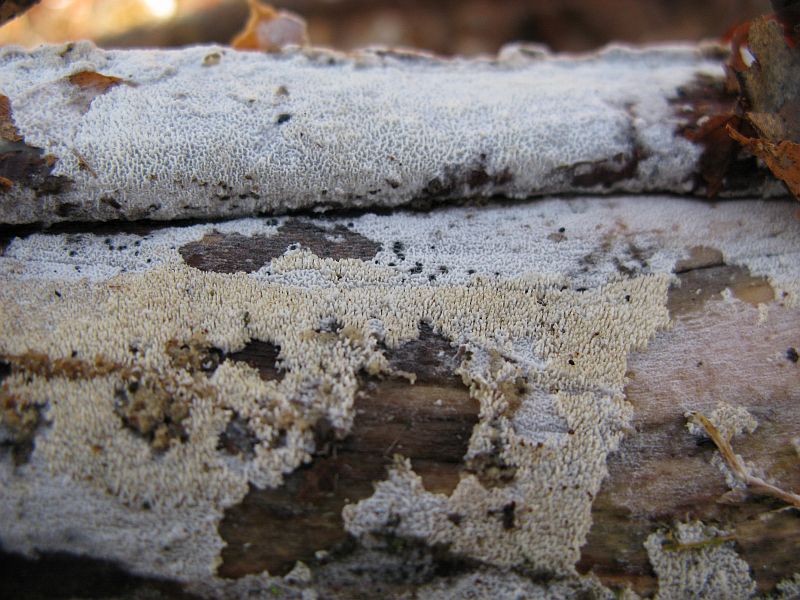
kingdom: Fungi
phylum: Basidiomycota
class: Agaricomycetes
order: Hymenochaetales
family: Schizoporaceae
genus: Schizopora
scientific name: Schizopora paradoxa
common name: hvid tandsvamp
